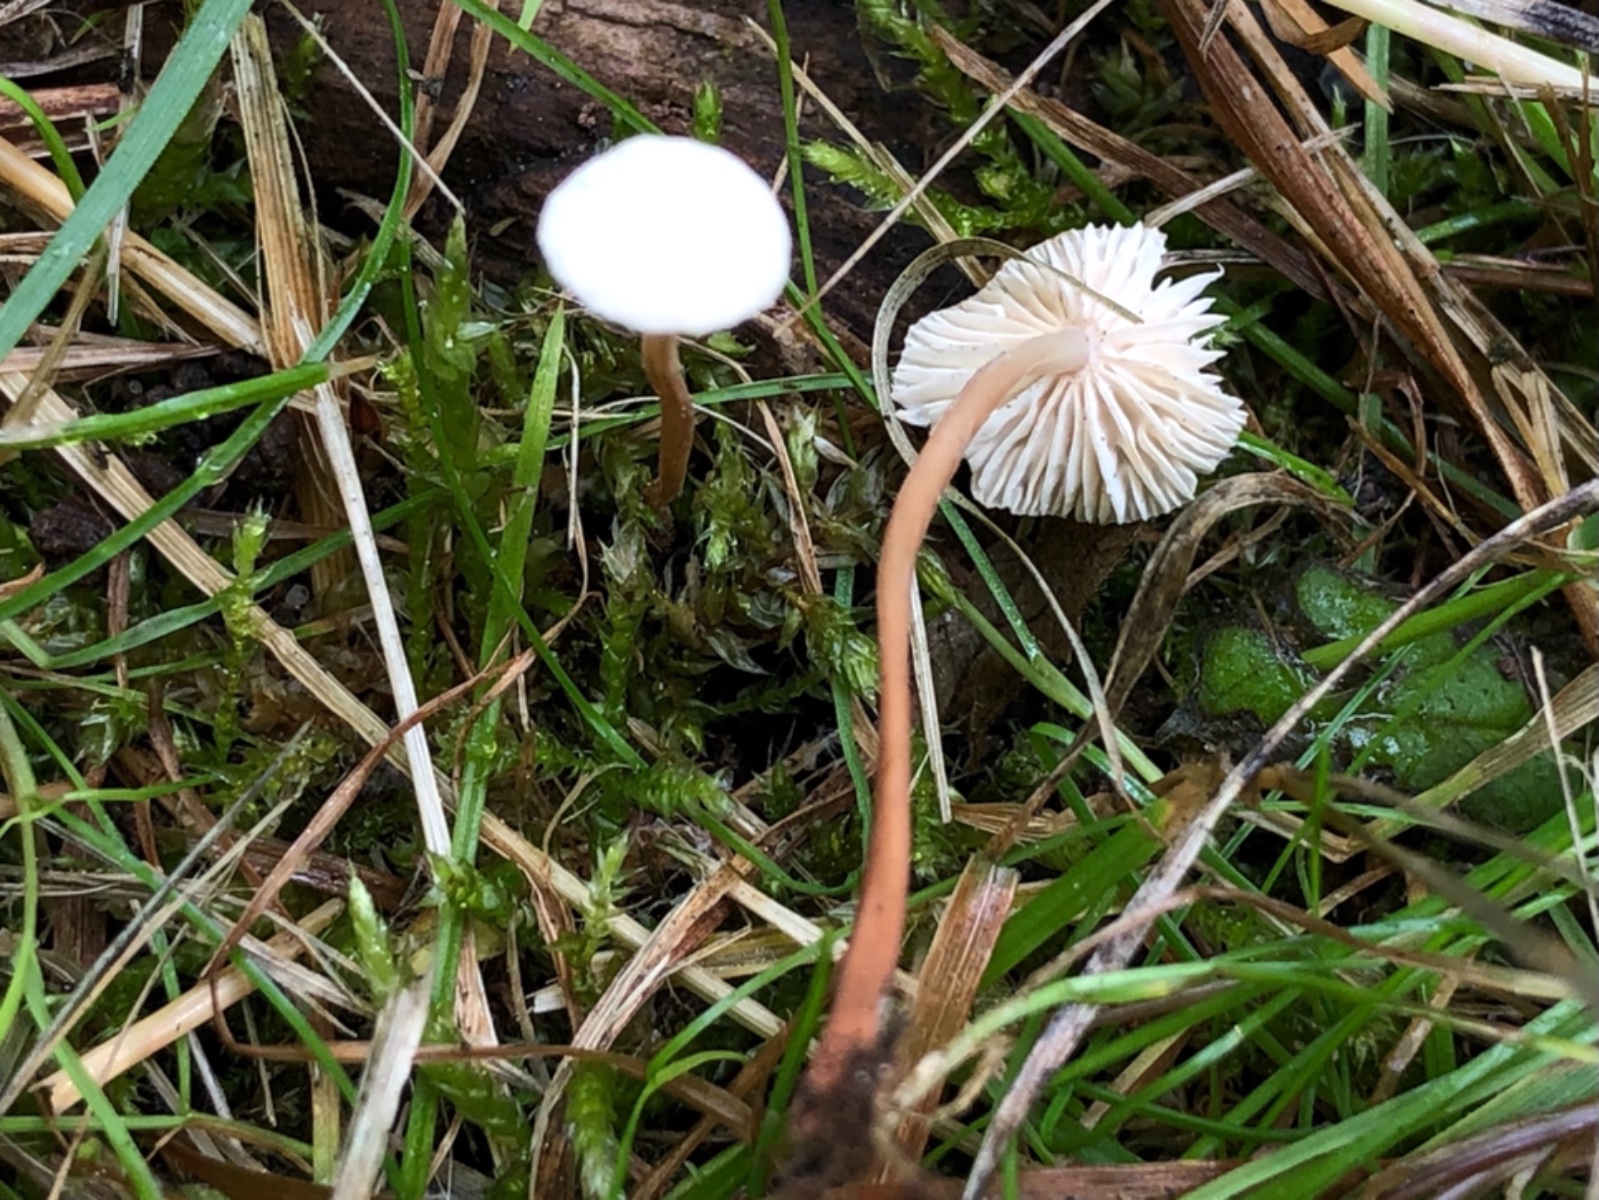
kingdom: Fungi
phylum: Basidiomycota
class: Agaricomycetes
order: Agaricales
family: Omphalotaceae
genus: Collybiopsis
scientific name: Collybiopsis vaillantii
